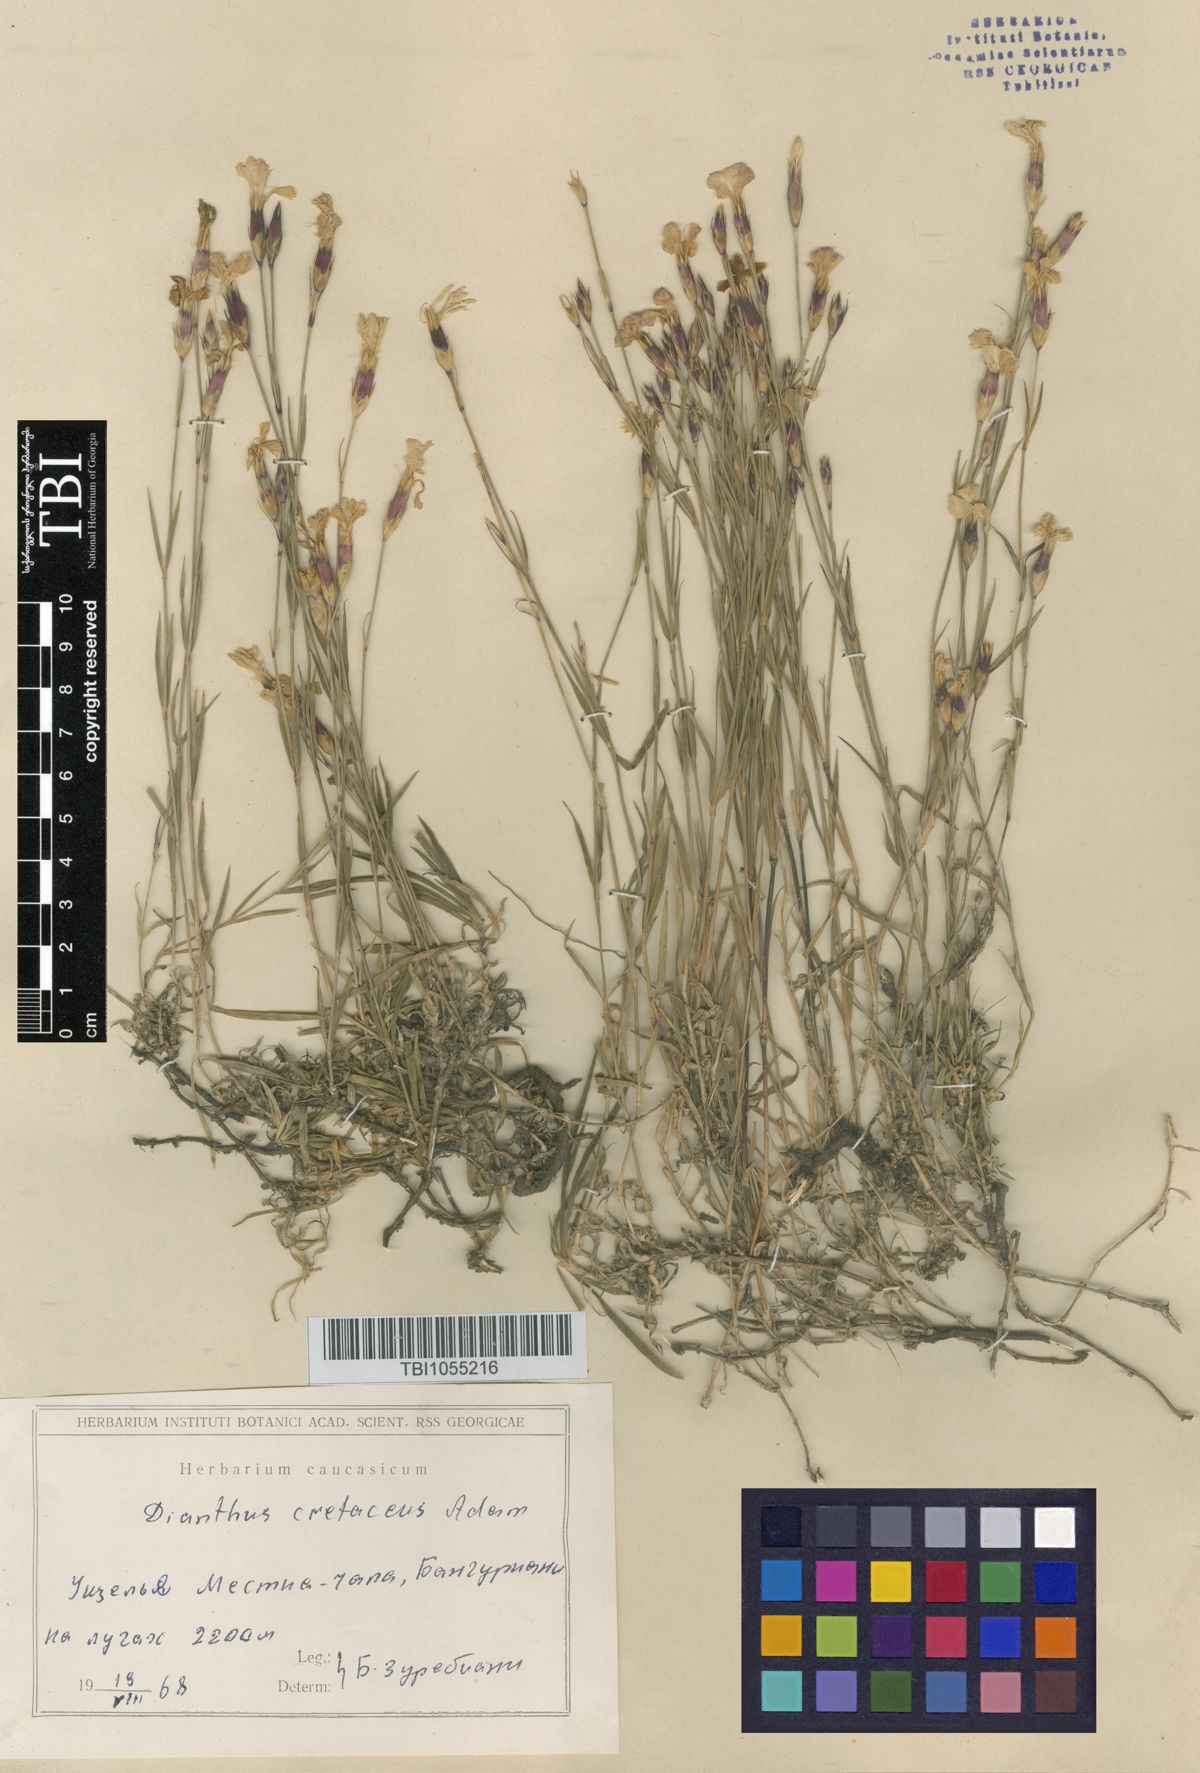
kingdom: Plantae
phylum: Tracheophyta
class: Magnoliopsida
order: Caryophyllales
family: Caryophyllaceae
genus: Dianthus
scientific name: Dianthus cretaceus
